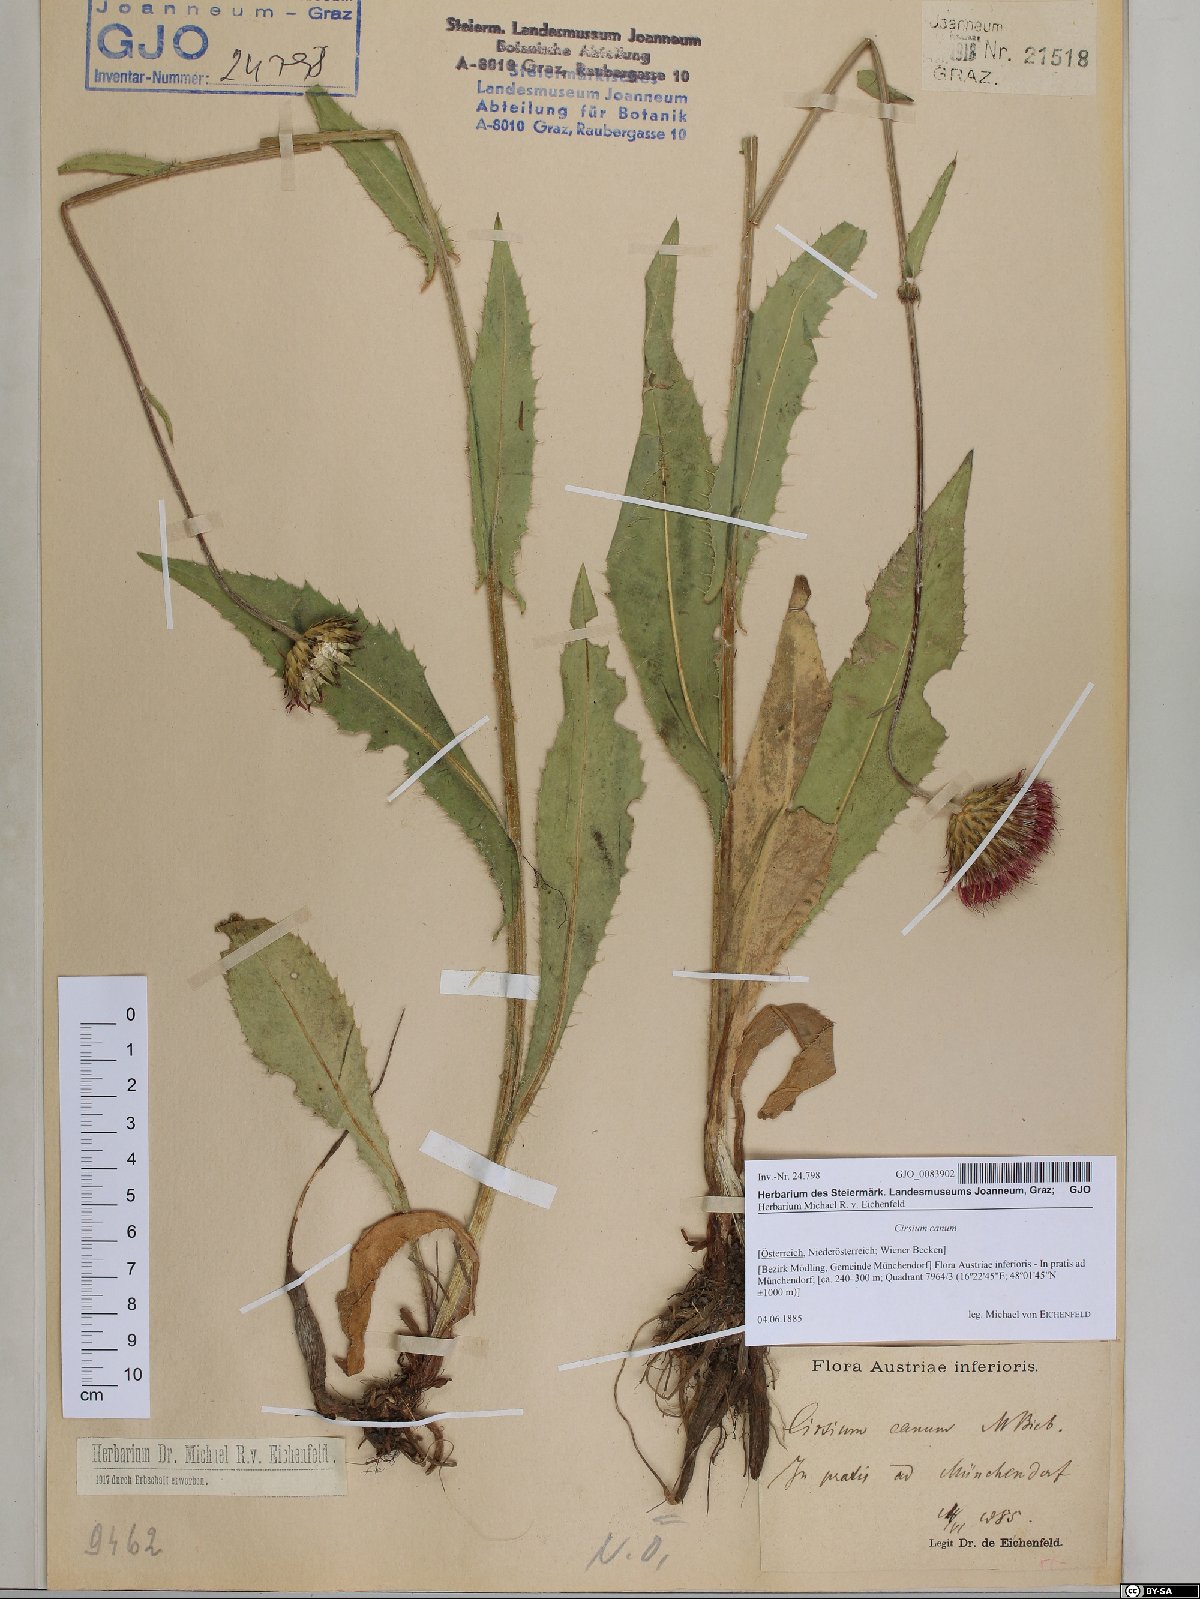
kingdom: Plantae
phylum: Tracheophyta
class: Magnoliopsida
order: Asterales
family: Asteraceae
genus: Cirsium
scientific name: Cirsium canum
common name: Queen anne's thistle
